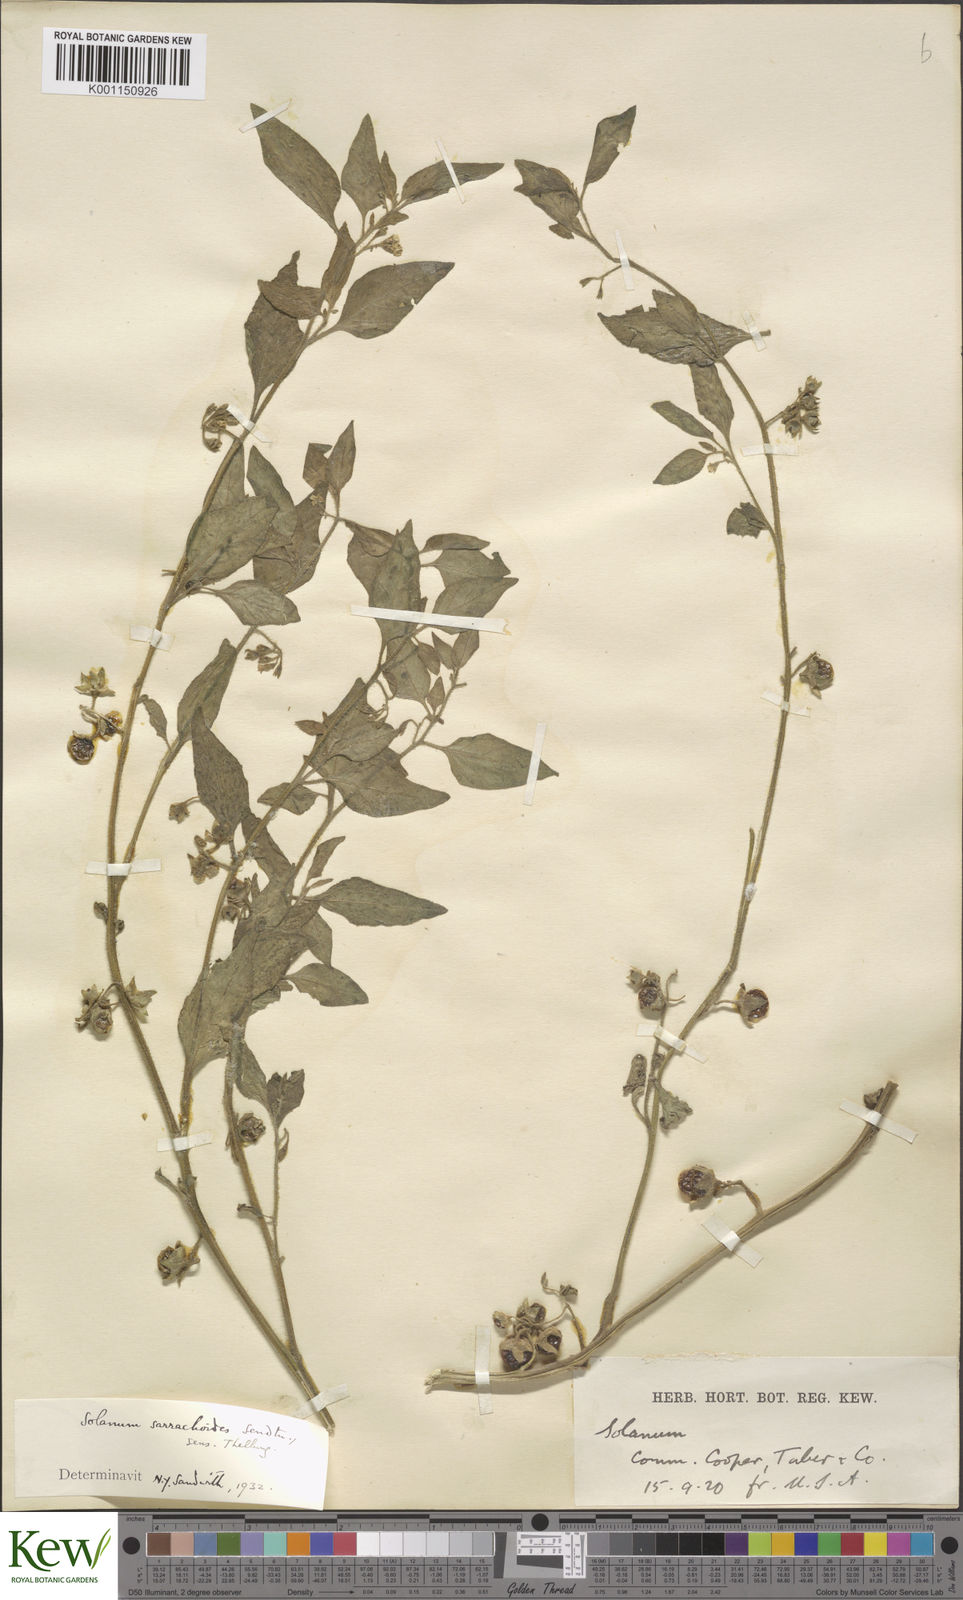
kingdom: Plantae
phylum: Tracheophyta
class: Magnoliopsida
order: Solanales
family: Solanaceae
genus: Solanum
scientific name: Solanum nitidibaccatum
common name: Hairy nightshade
